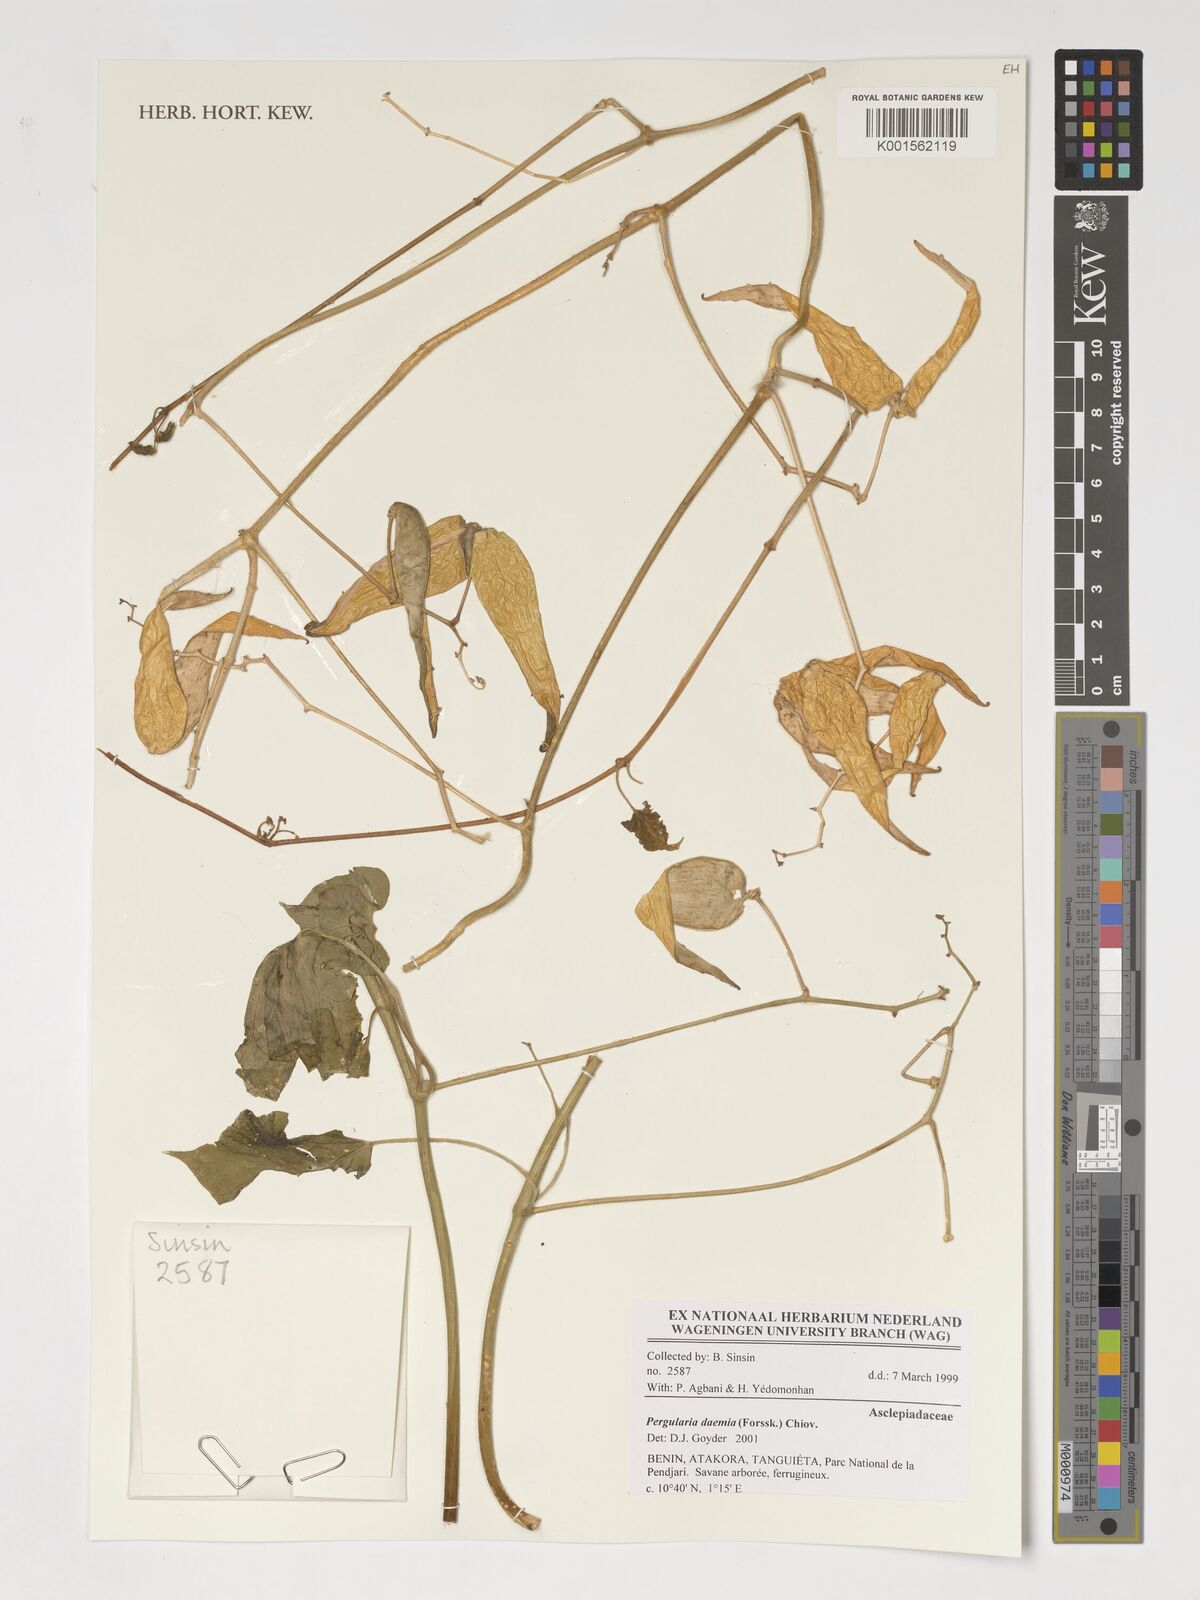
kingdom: Plantae
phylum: Tracheophyta
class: Magnoliopsida
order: Gentianales
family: Apocynaceae
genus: Pergularia
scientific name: Pergularia daemia
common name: Trellis-vine
